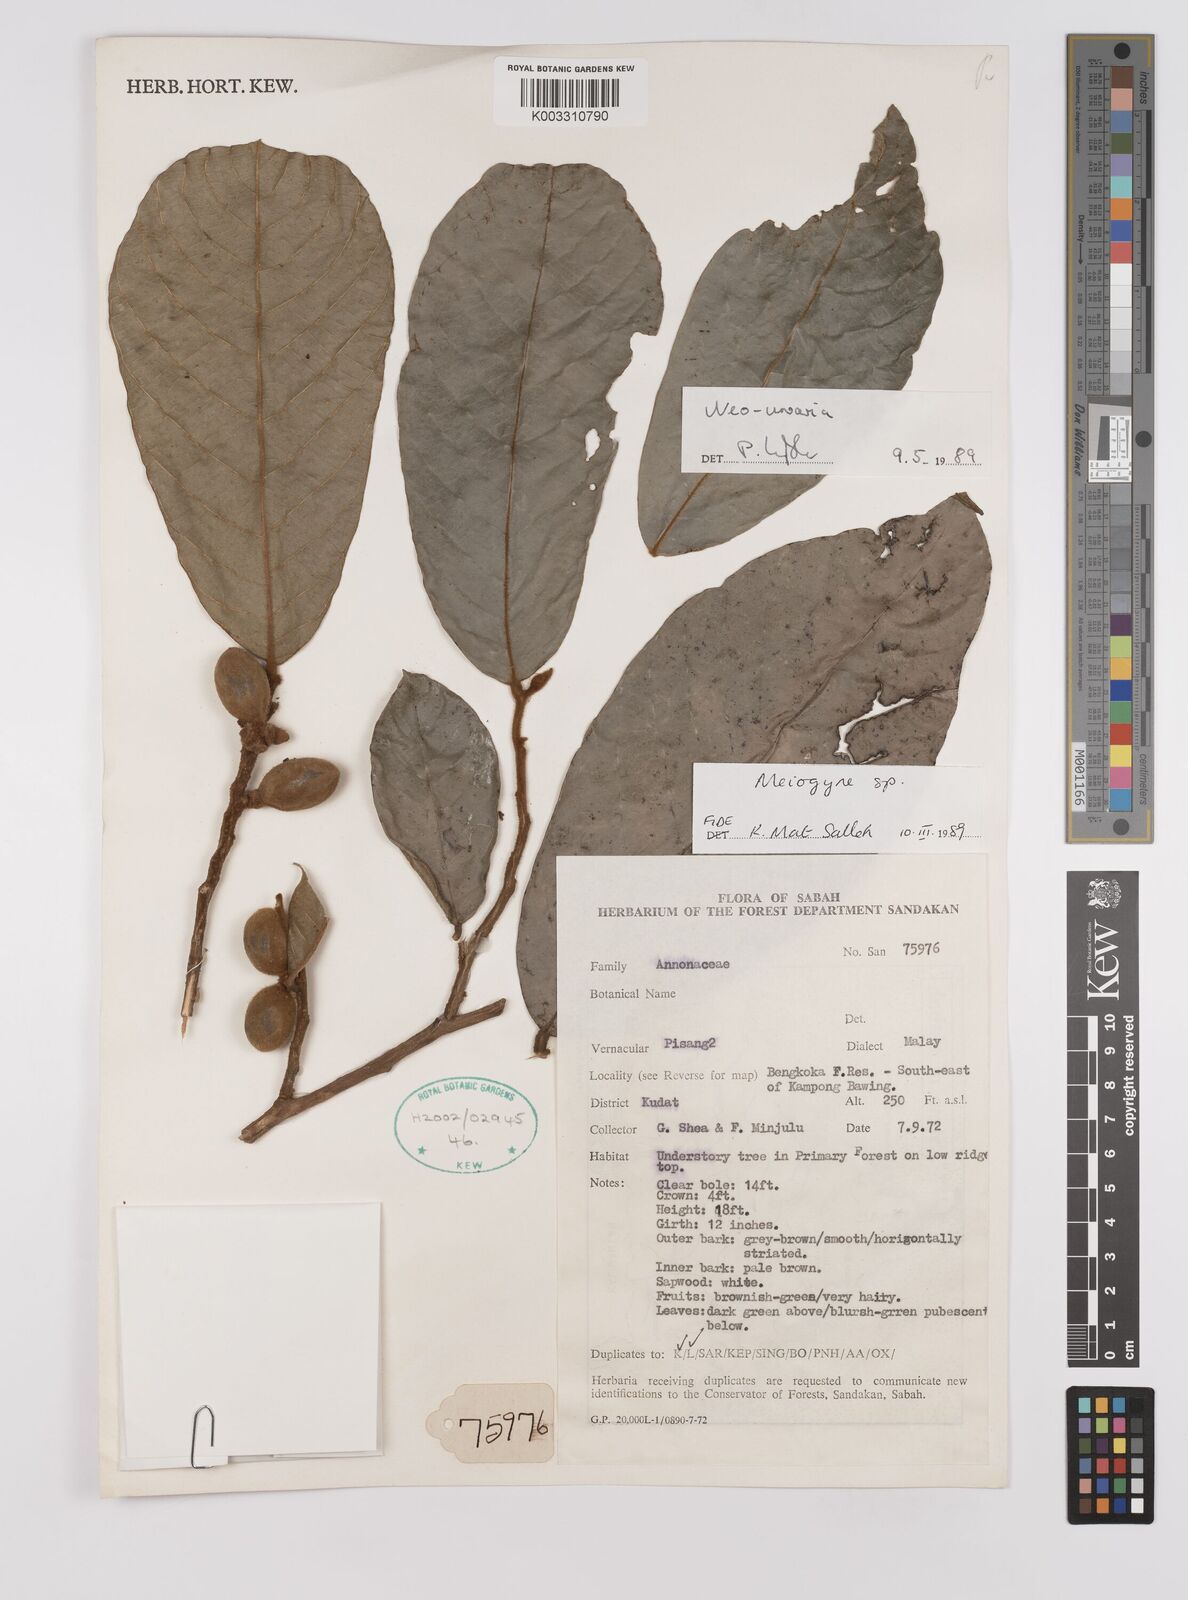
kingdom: Plantae
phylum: Tracheophyta
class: Magnoliopsida
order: Magnoliales
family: Annonaceae
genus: Neo-uvaria
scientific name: Neo-uvaria
